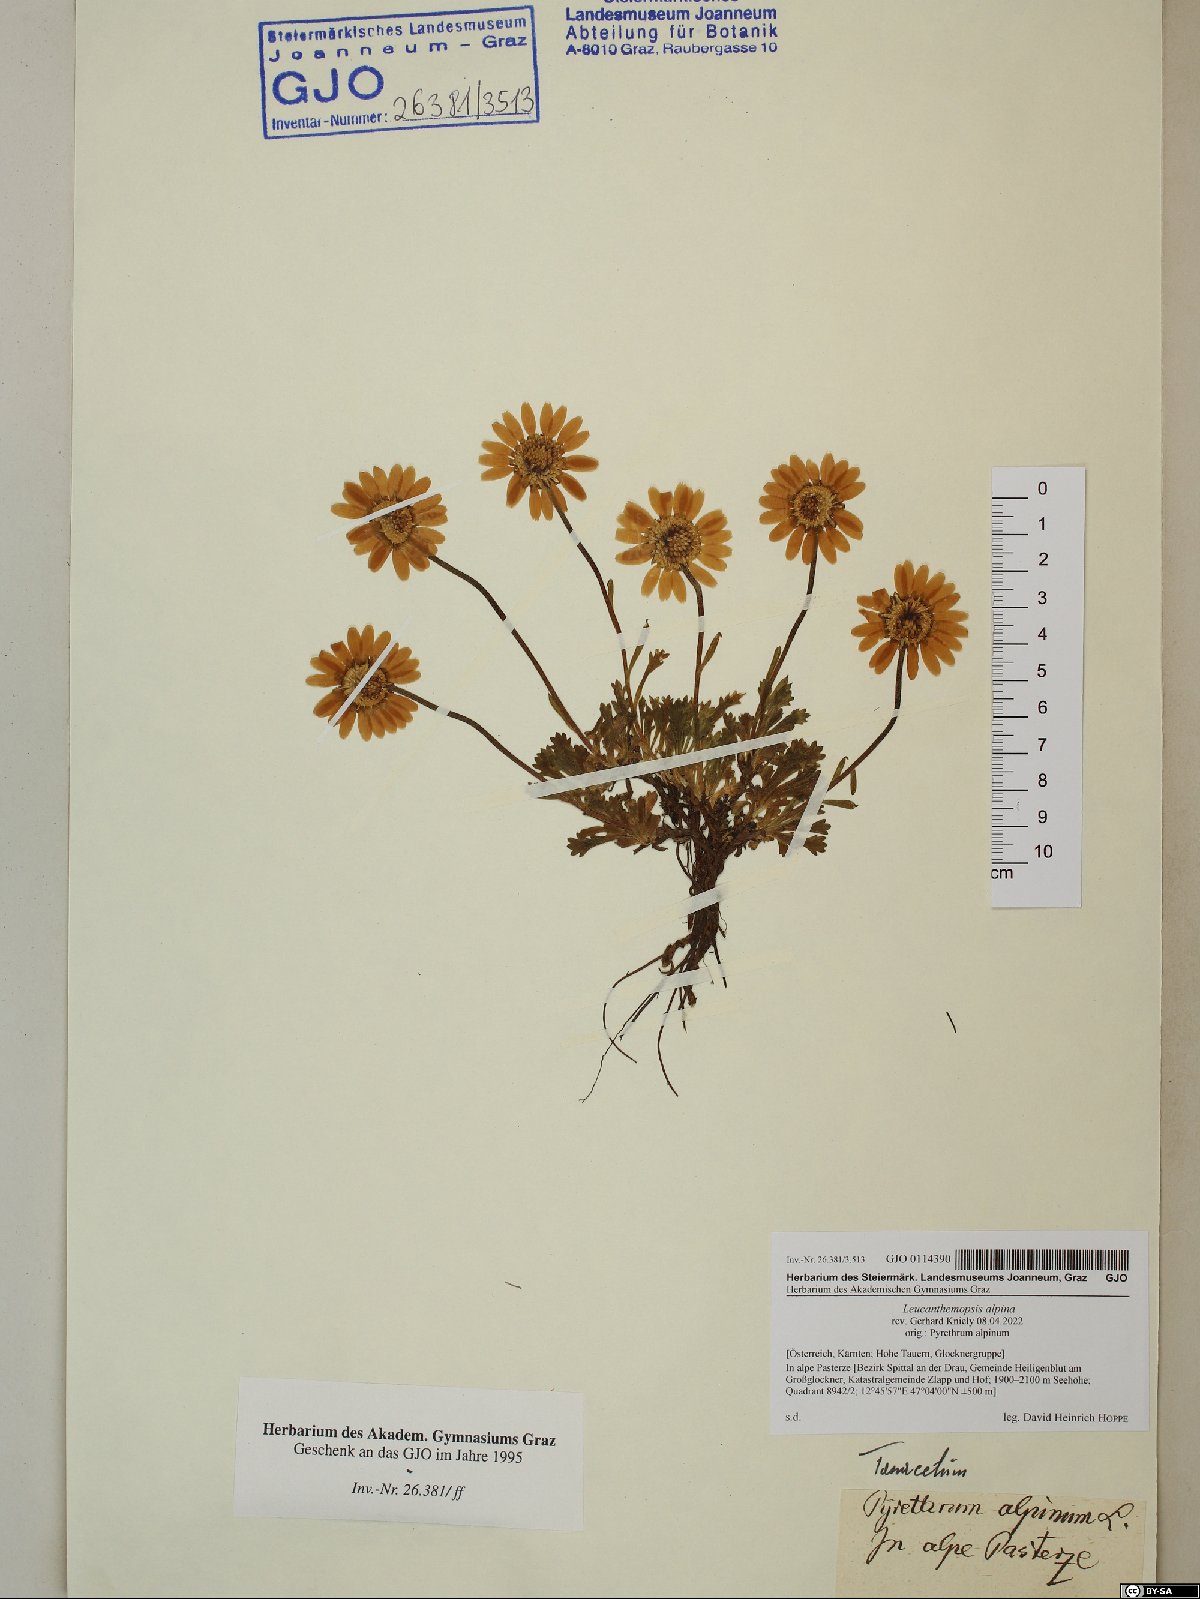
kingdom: Plantae
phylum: Tracheophyta
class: Magnoliopsida
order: Asterales
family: Asteraceae
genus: Leucanthemopsis
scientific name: Leucanthemopsis alpina
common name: Alpine moon daisy
